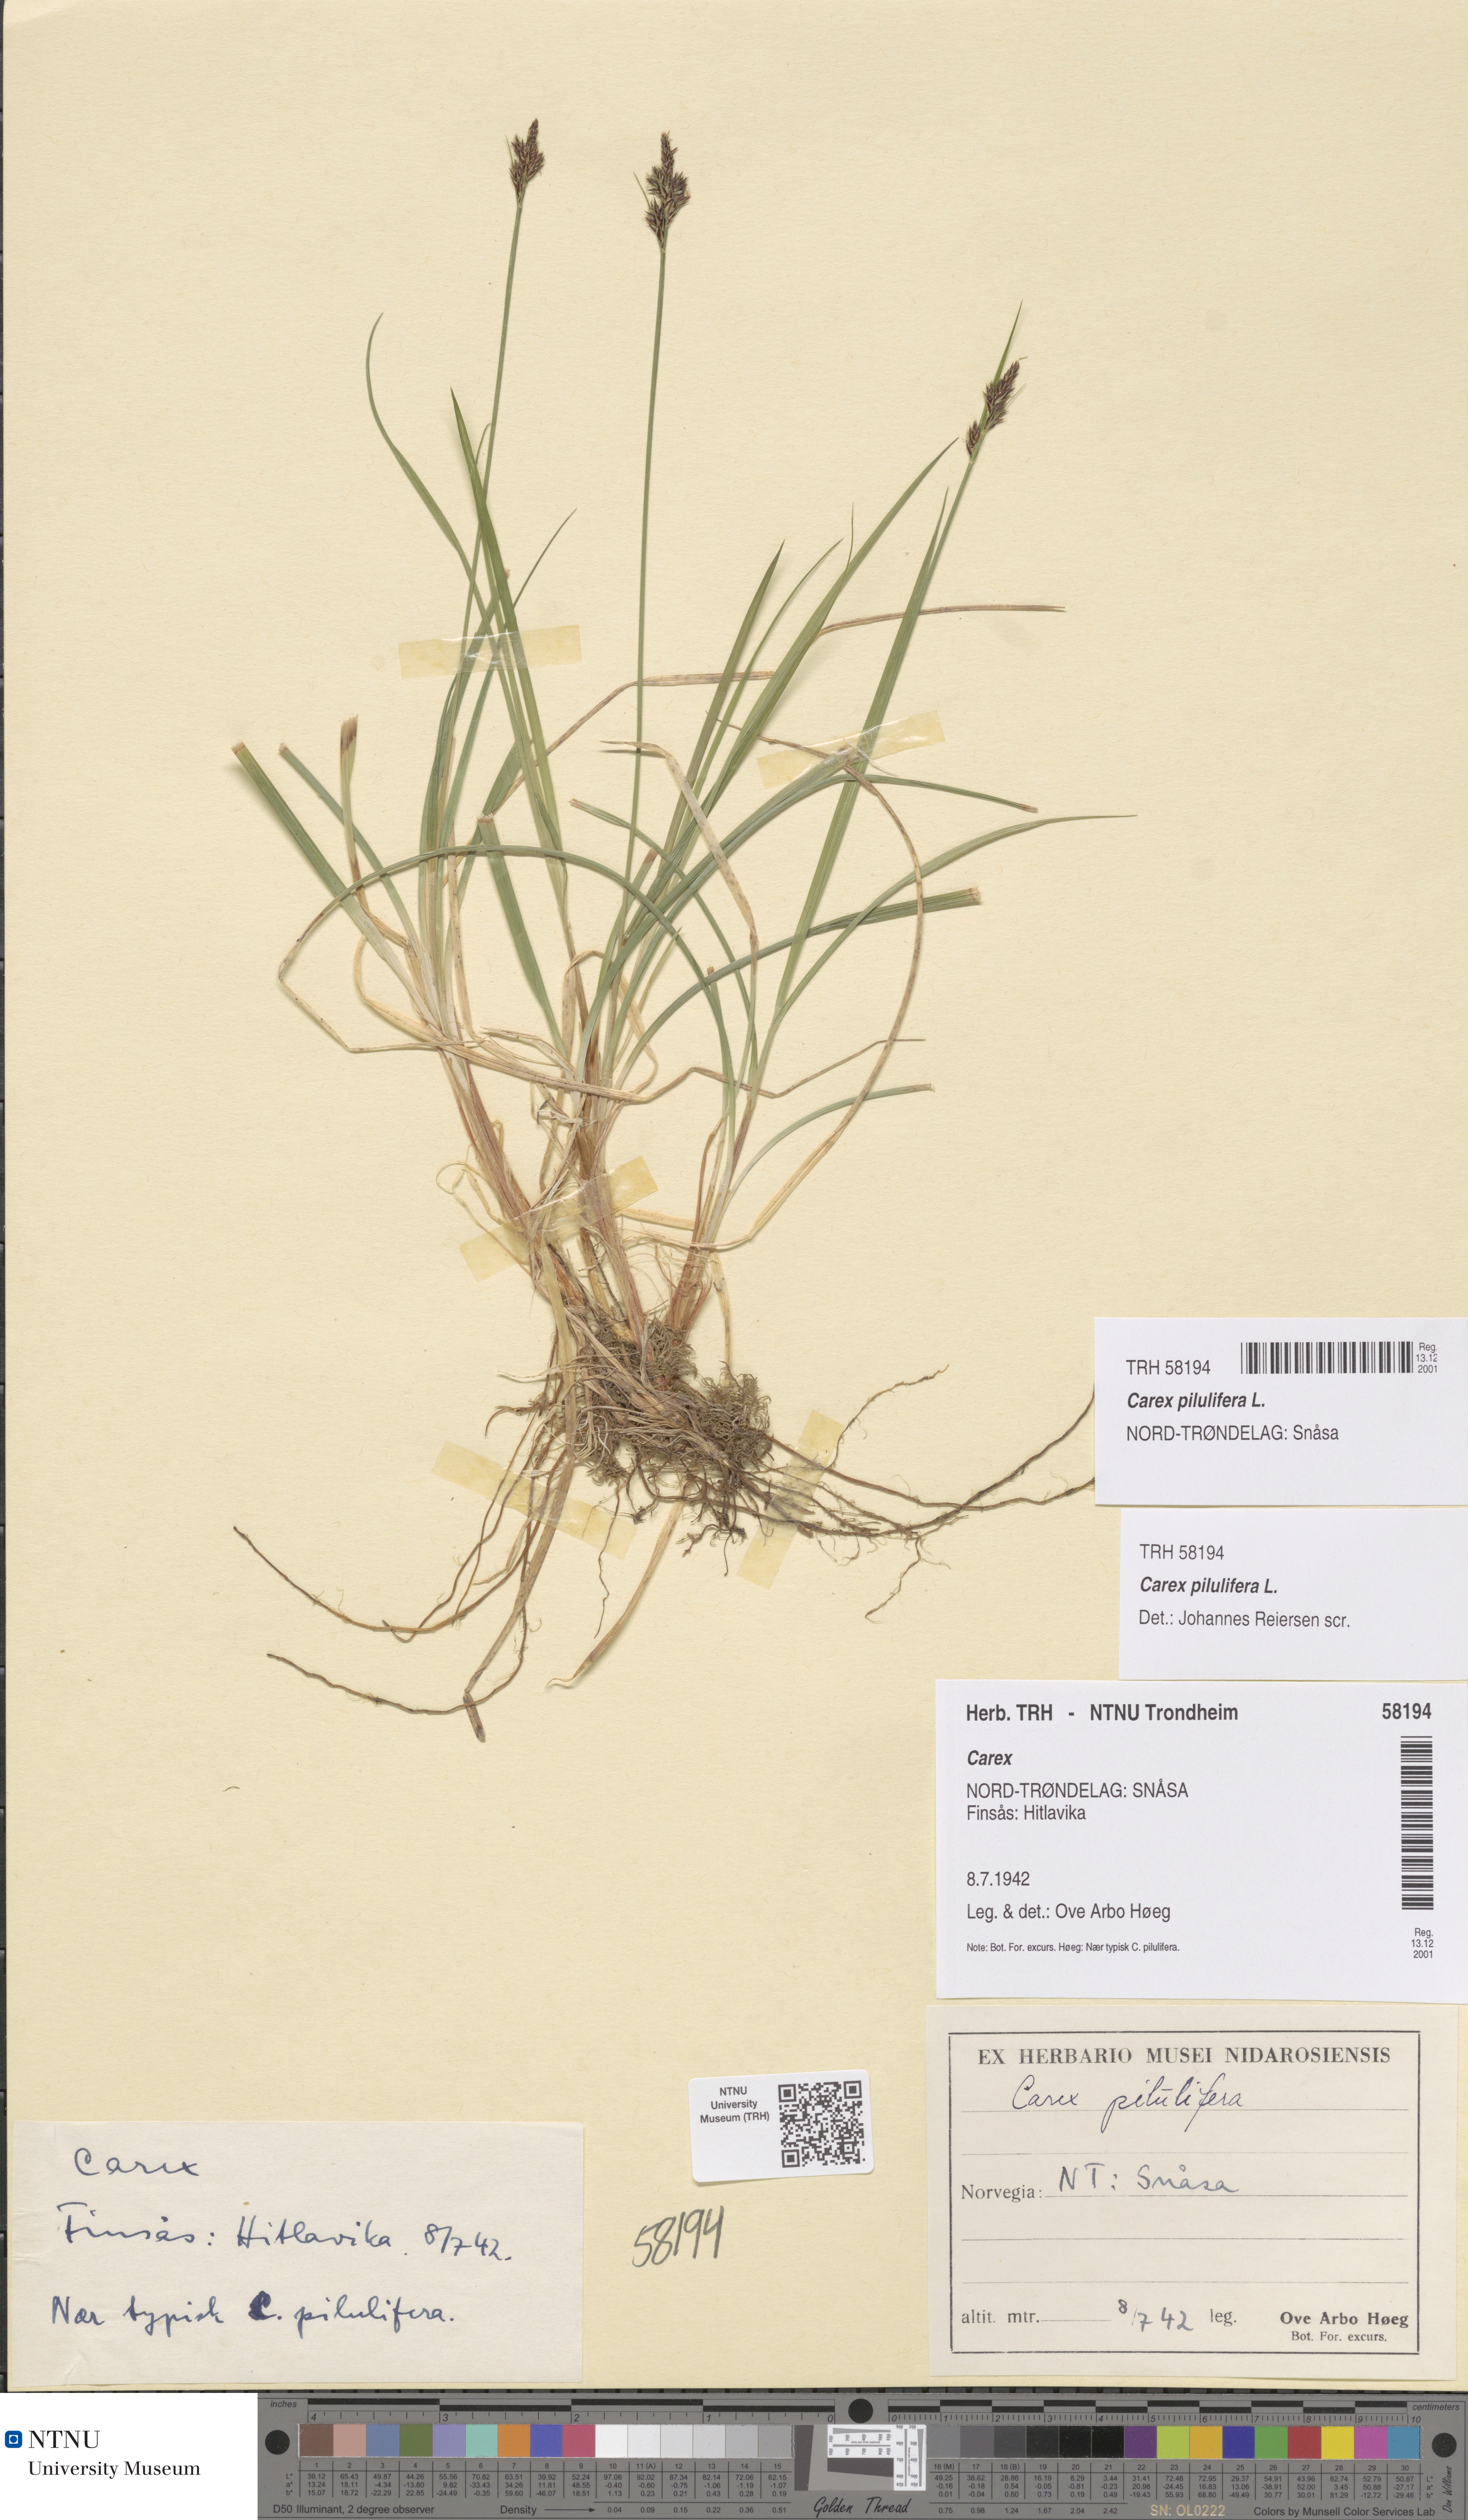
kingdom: Plantae
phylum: Tracheophyta
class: Liliopsida
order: Poales
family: Cyperaceae
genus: Carex
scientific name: Carex pilulifera
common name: Pill sedge
